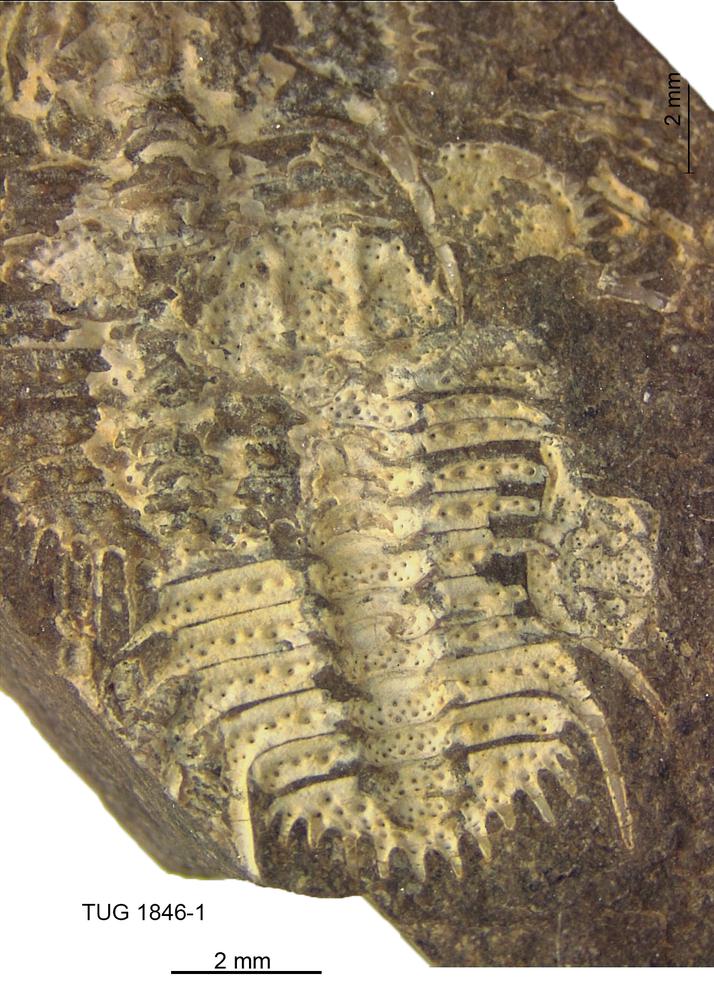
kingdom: Animalia
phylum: Arthropoda
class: Trilobita
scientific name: Trilobita
